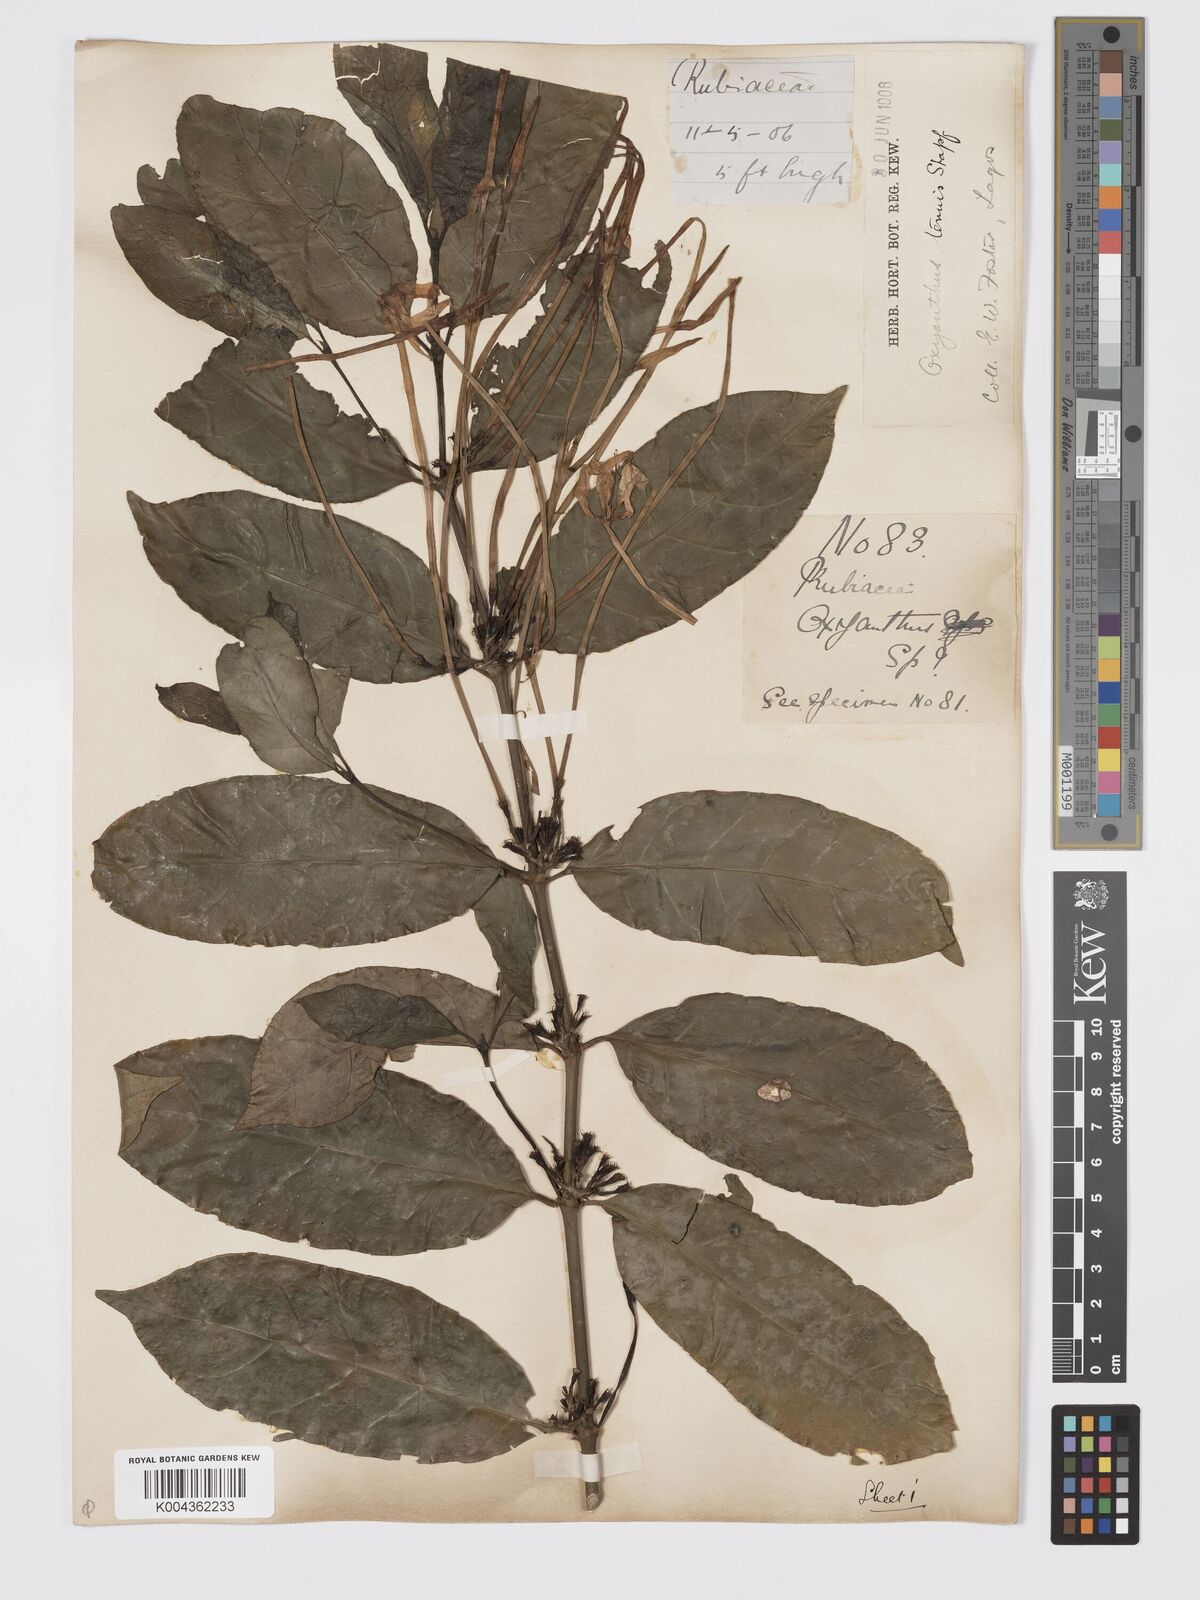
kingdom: Plantae
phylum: Tracheophyta
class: Magnoliopsida
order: Gentianales
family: Rubiaceae
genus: Oxyanthus
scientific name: Oxyanthus subpunctatus
